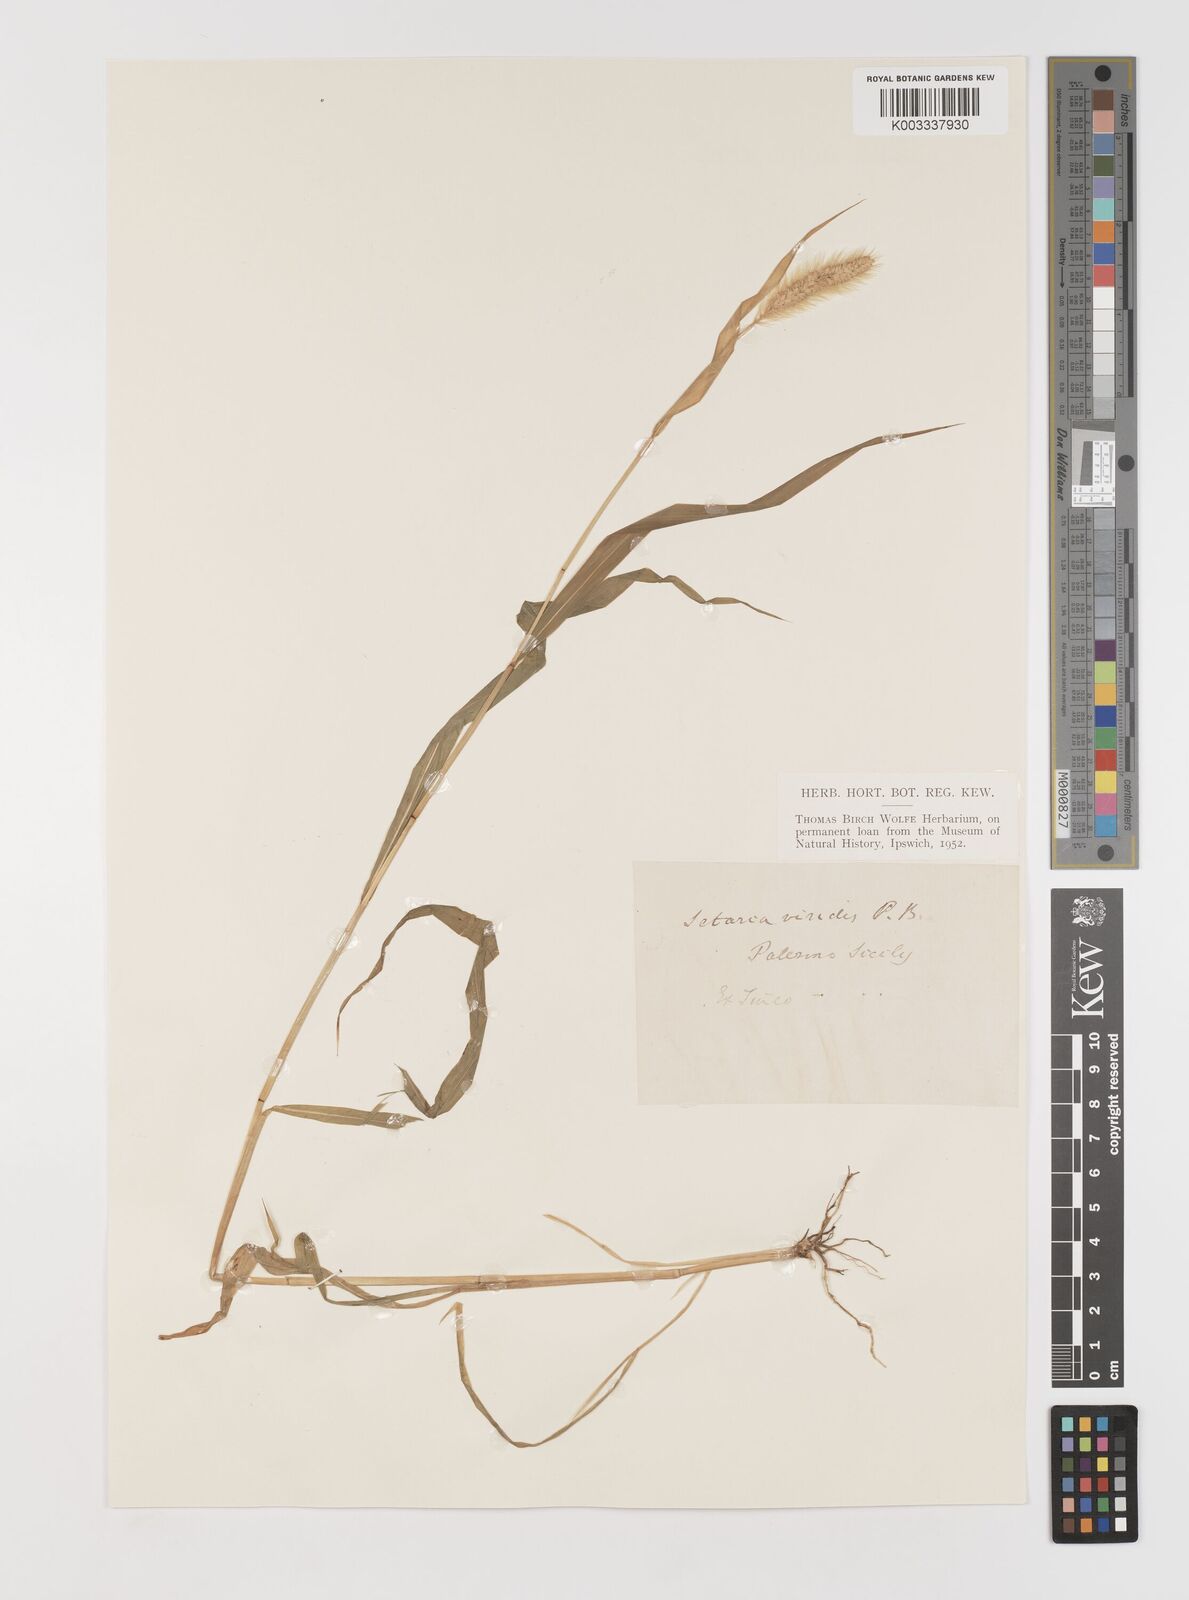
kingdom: Plantae
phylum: Tracheophyta
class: Liliopsida
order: Poales
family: Poaceae
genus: Setaria
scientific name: Setaria viridis
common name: Green bristlegrass
